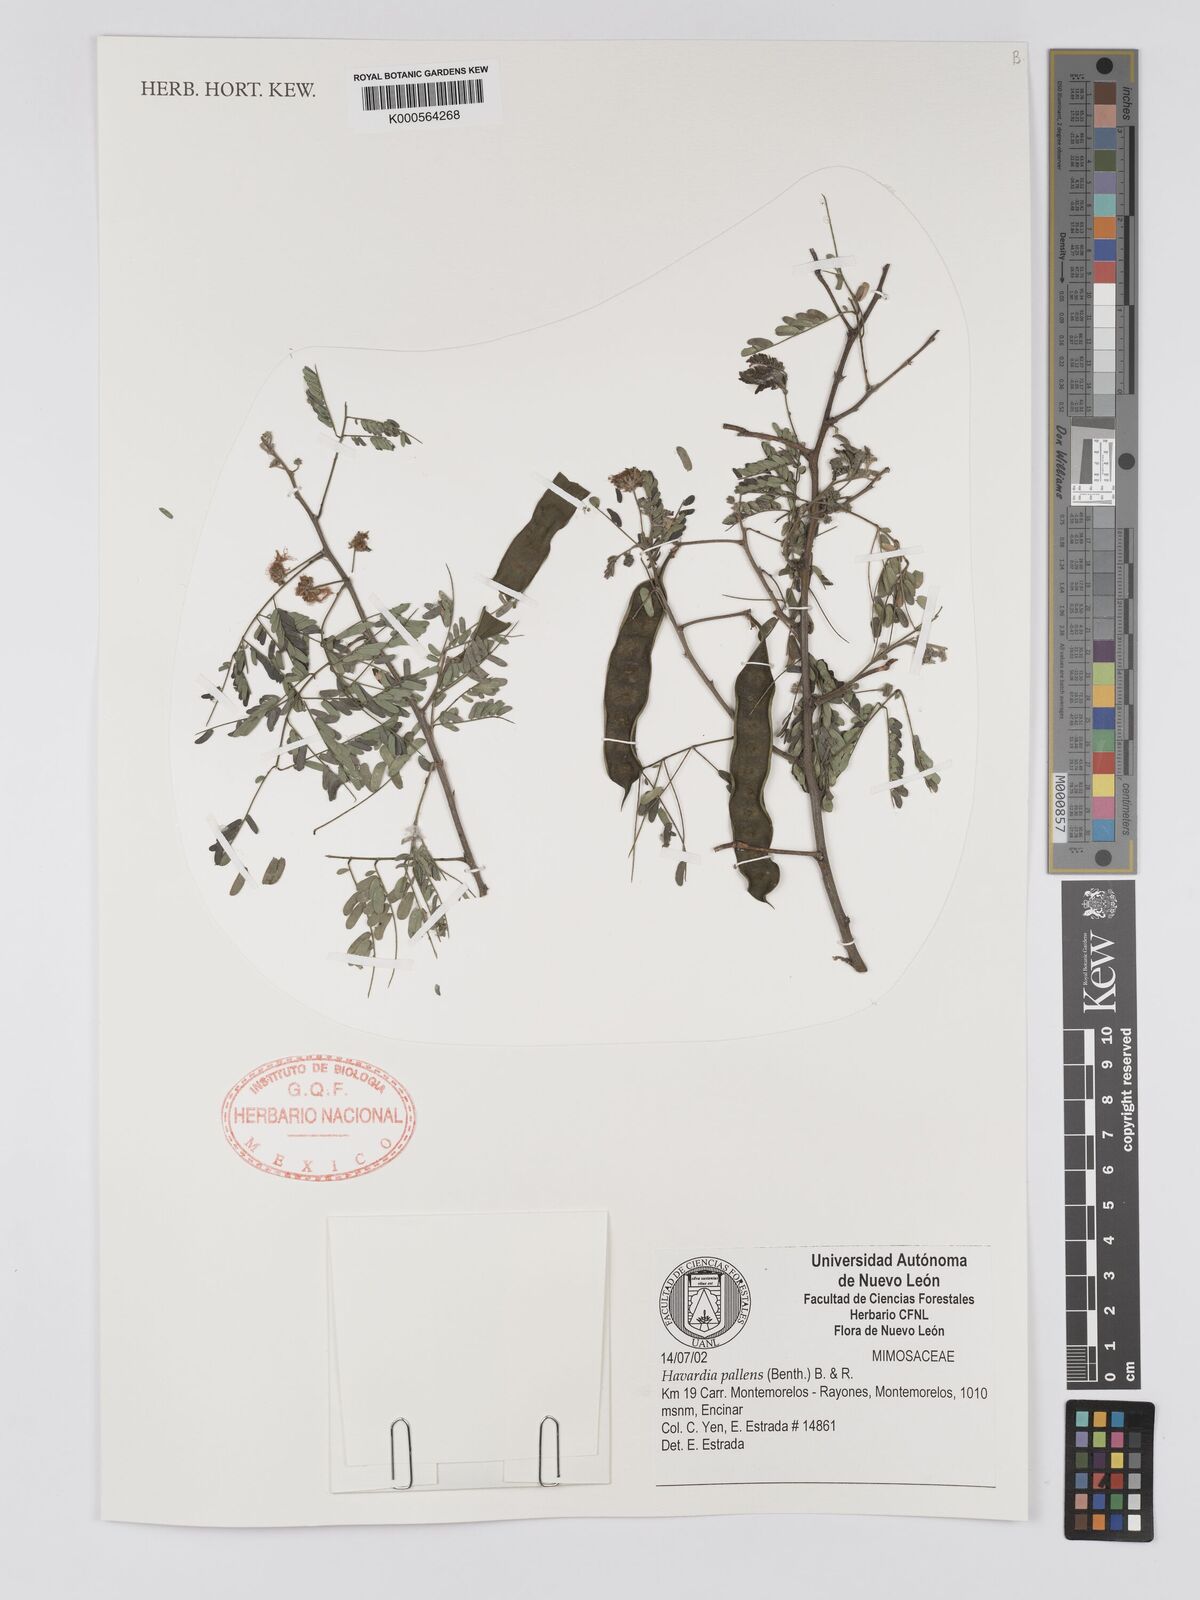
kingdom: Plantae
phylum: Tracheophyta
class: Magnoliopsida
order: Fabales
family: Fabaceae
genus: Havardia
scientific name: Havardia pallens
